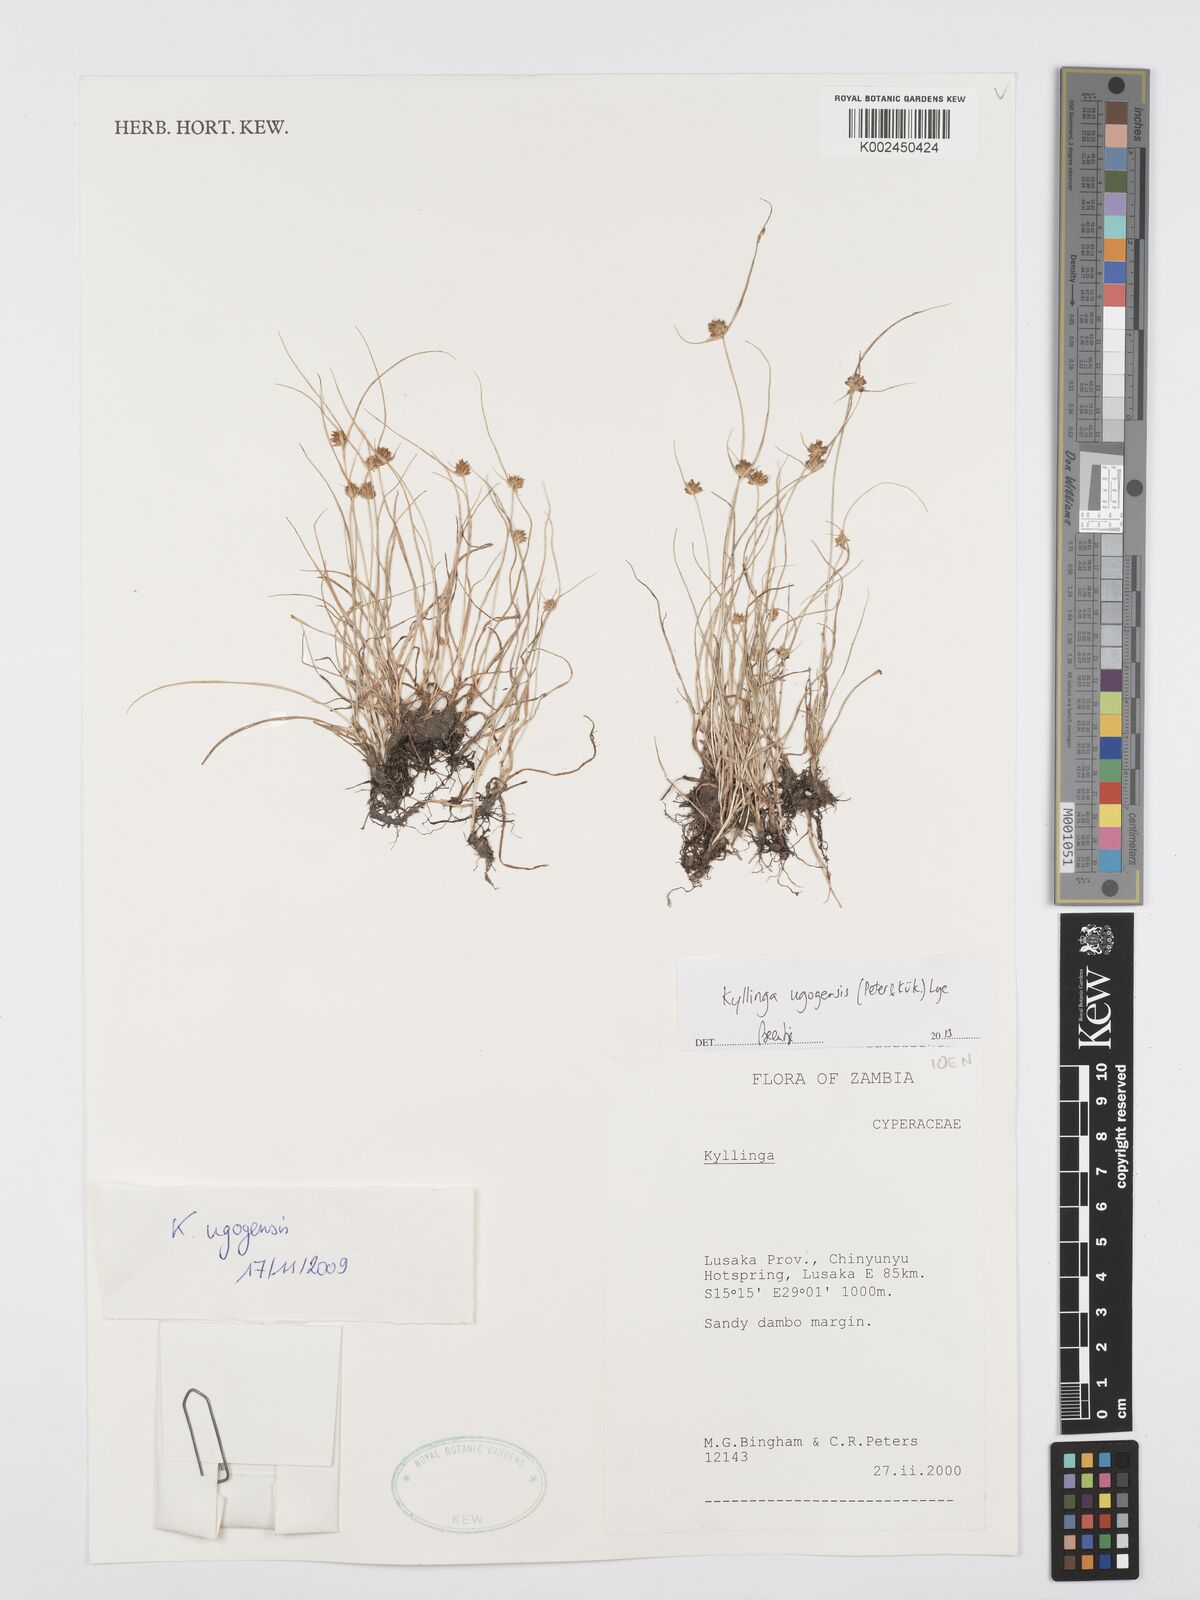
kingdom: Plantae
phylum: Tracheophyta
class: Liliopsida
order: Poales
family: Cyperaceae
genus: Cyperus
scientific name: Cyperus ugogensis
